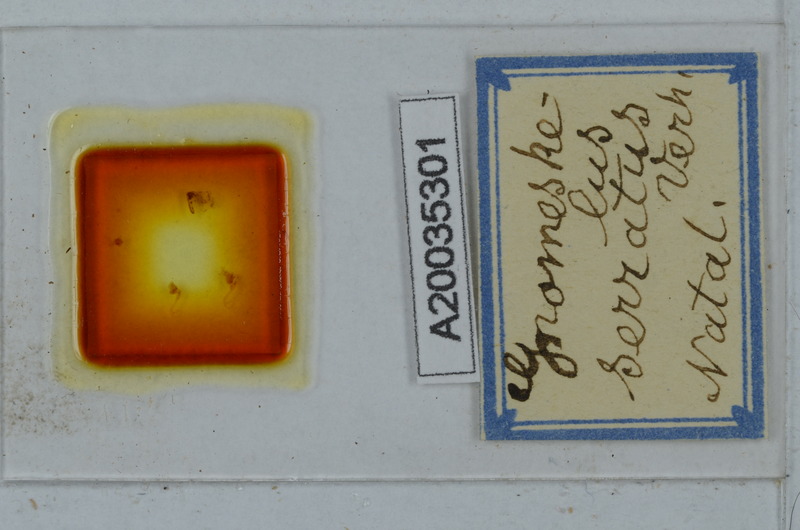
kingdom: Animalia
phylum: Arthropoda
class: Diplopoda
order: Polydesmida
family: Dalodesmidae
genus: Gnomeskelus
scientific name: Gnomeskelus serratus
